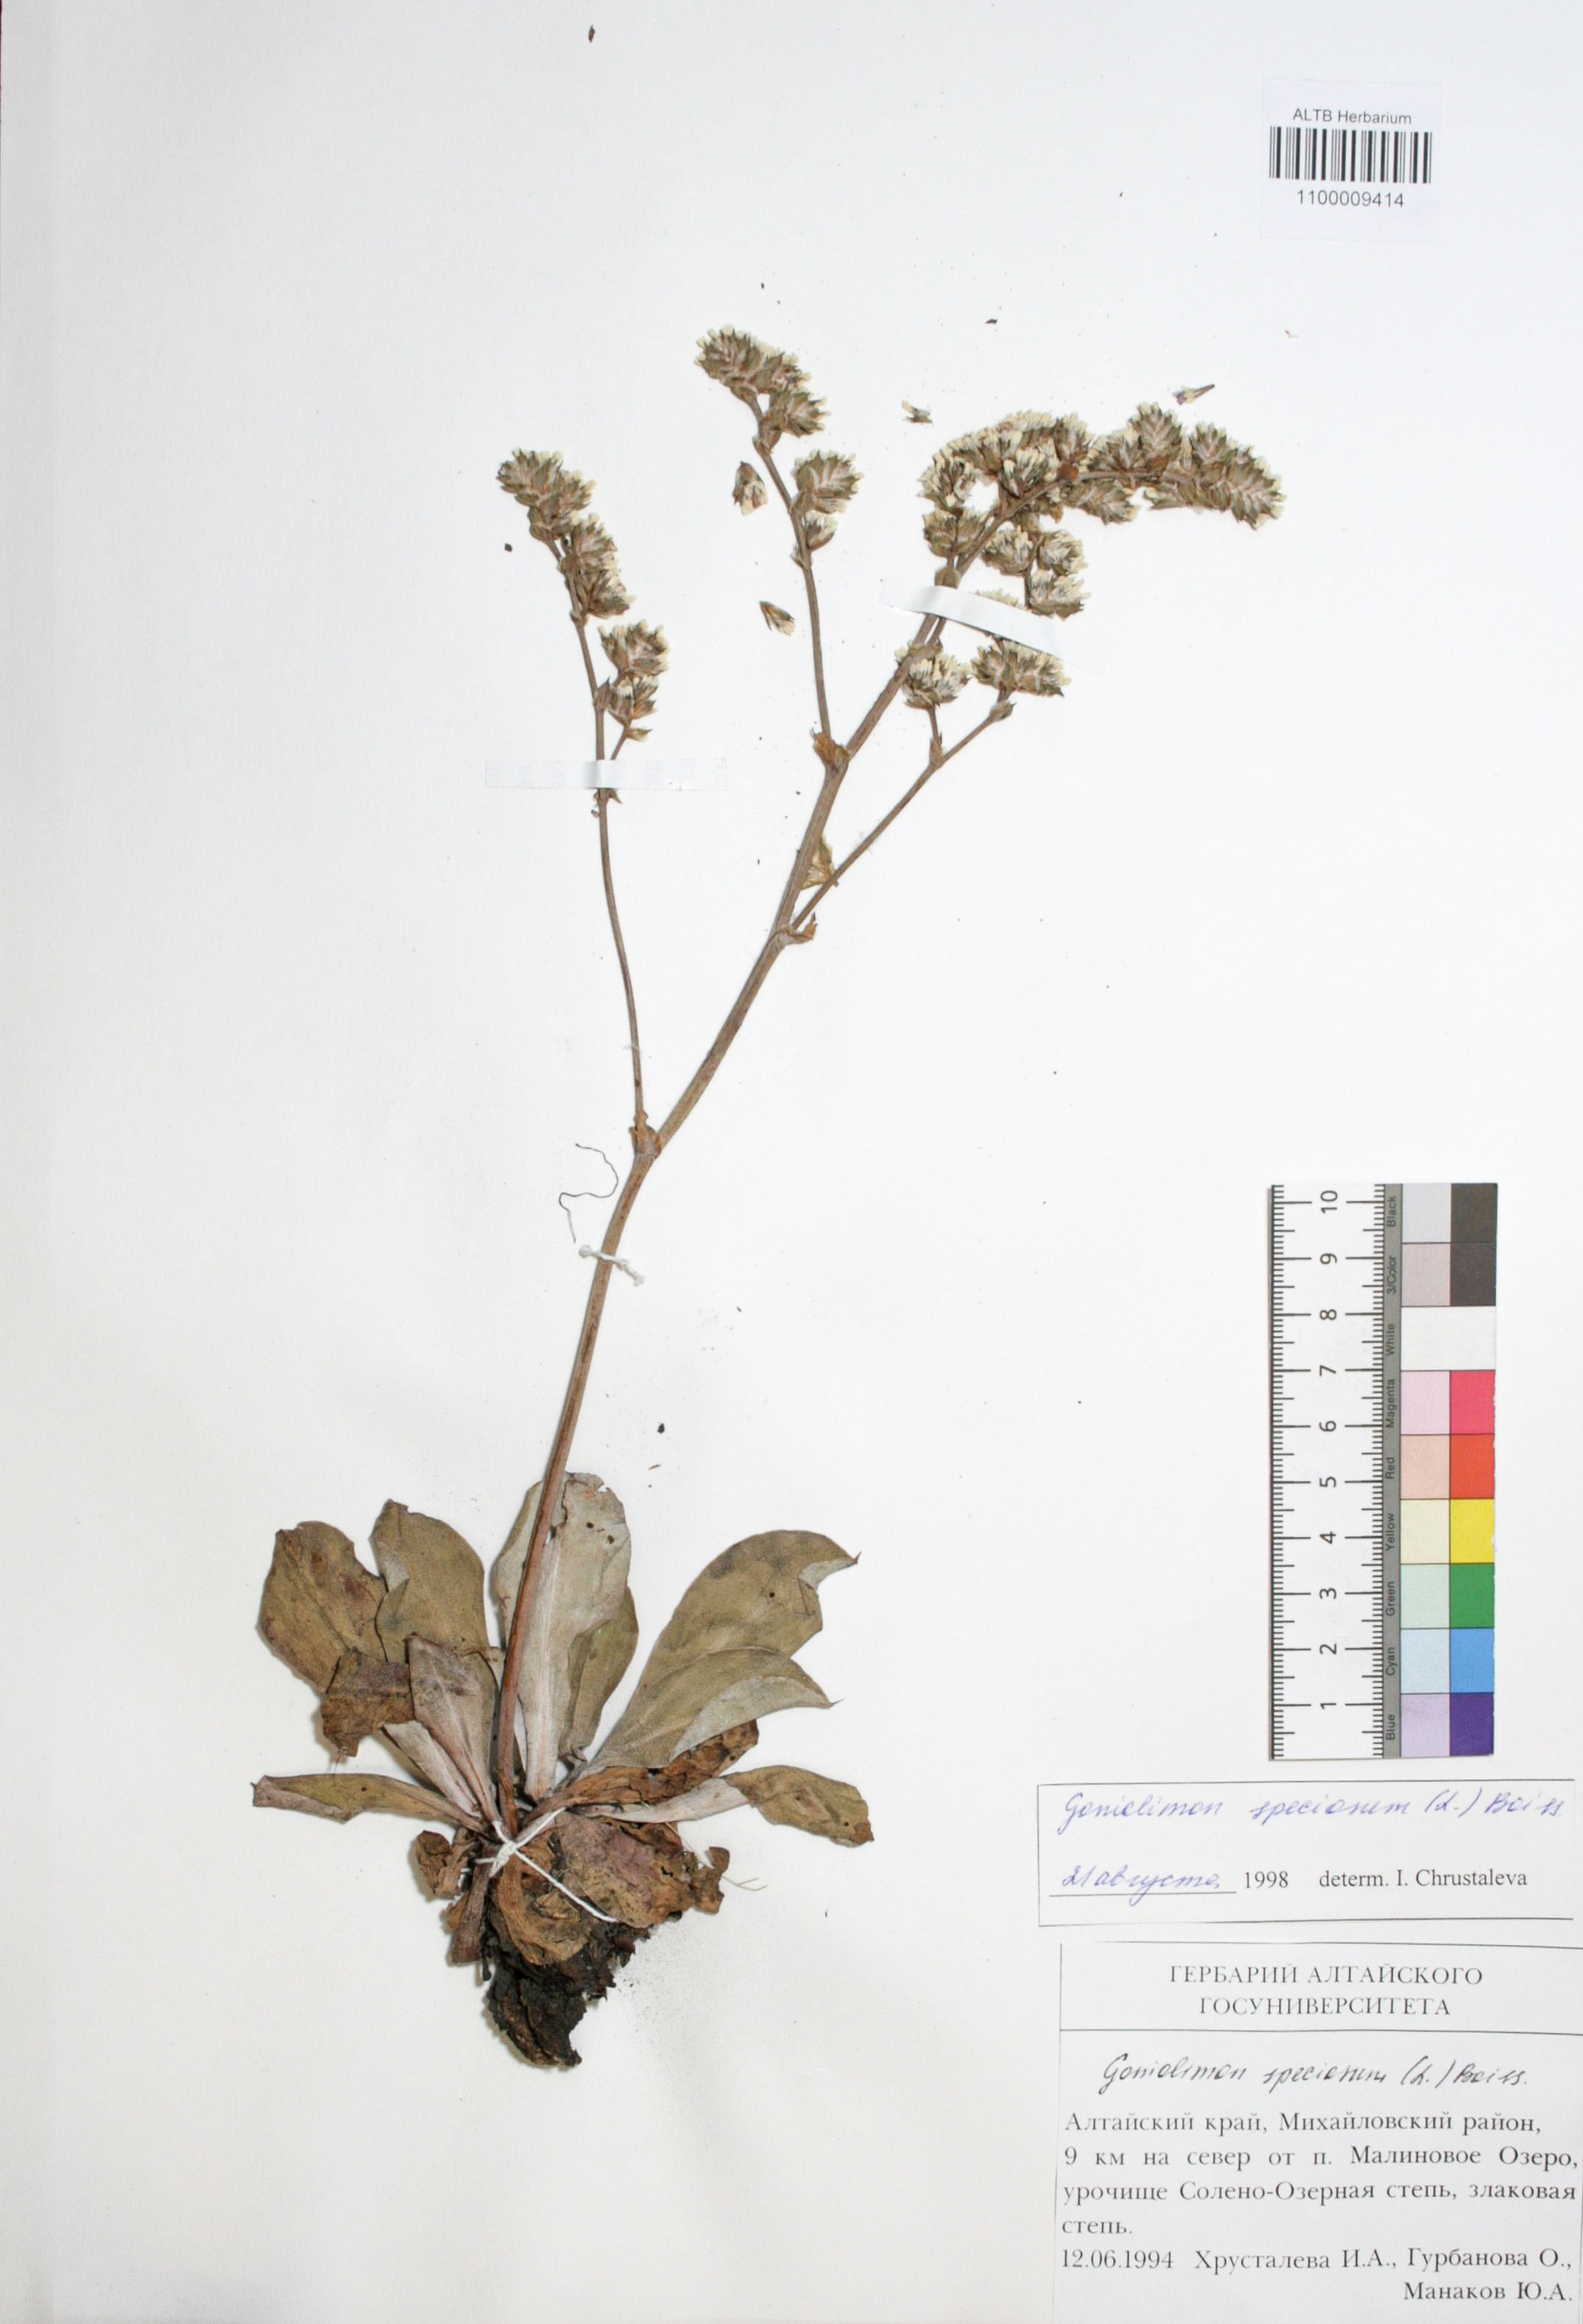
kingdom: Plantae
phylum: Tracheophyta
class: Magnoliopsida
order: Caryophyllales
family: Plumbaginaceae
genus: Goniolimon
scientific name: Goniolimon speciosum
